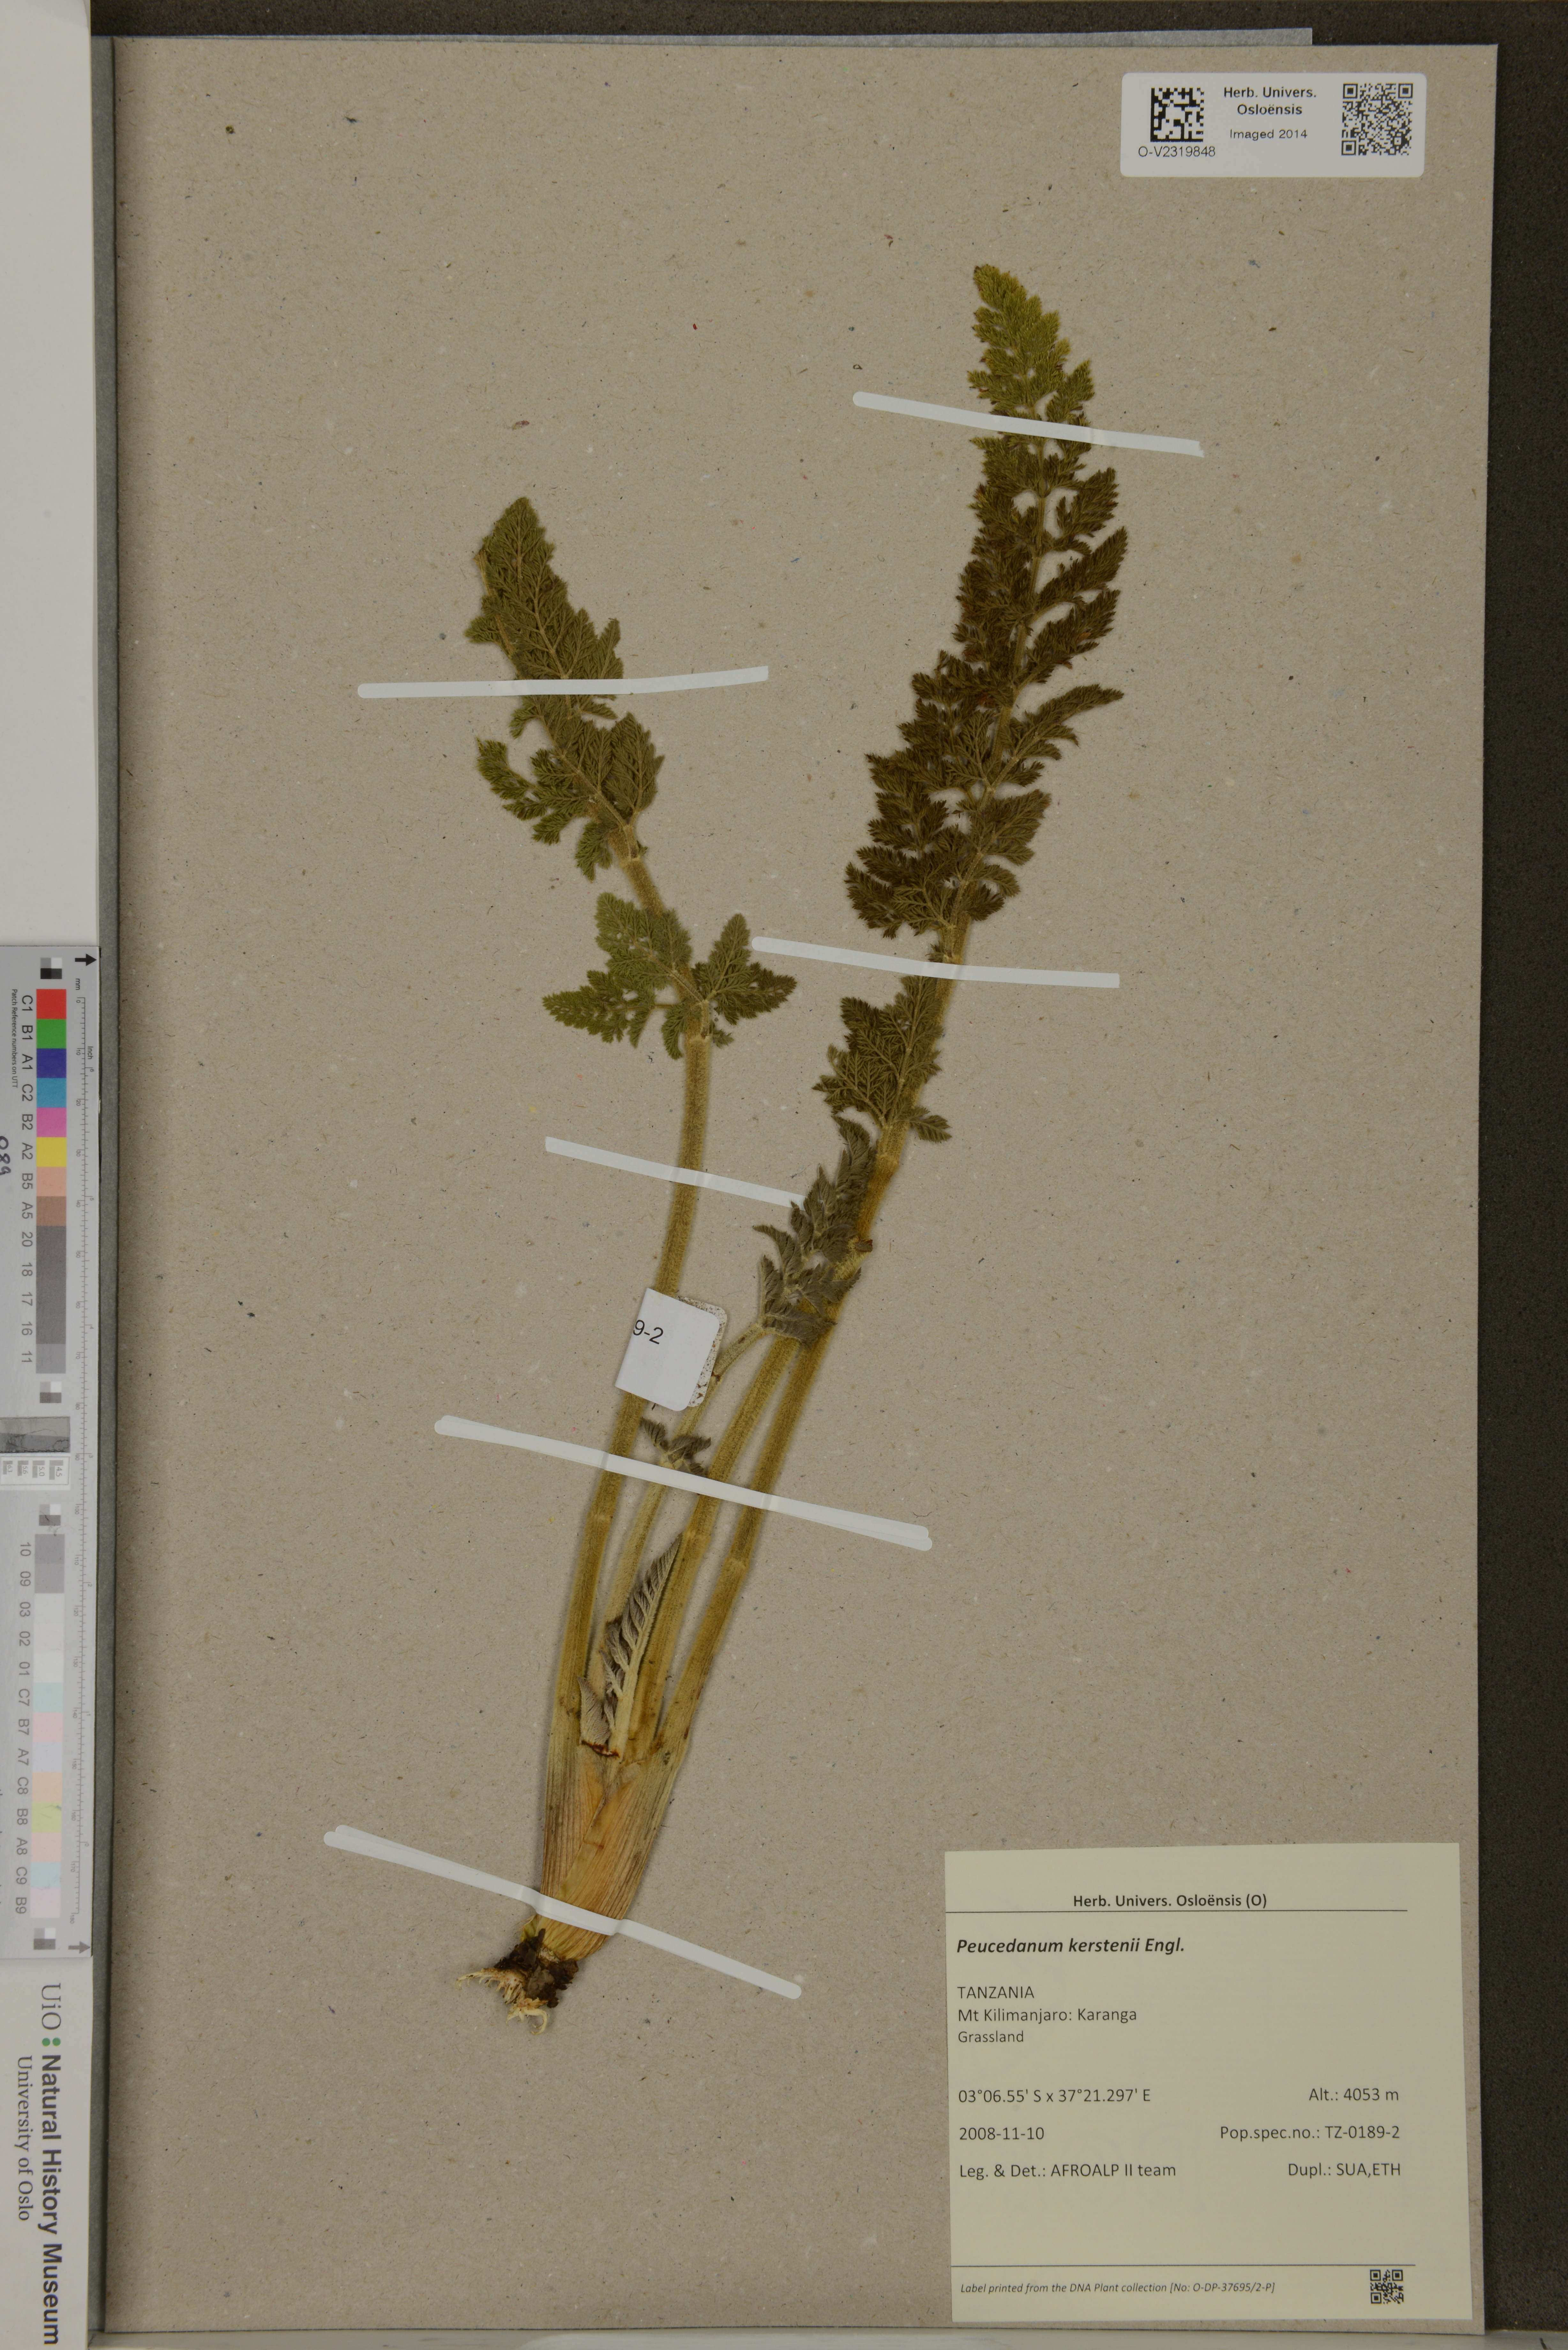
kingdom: Plantae
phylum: Tracheophyta
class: Magnoliopsida
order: Apiales
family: Apiaceae
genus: Afrosciadium
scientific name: Afrosciadium kerstenii
